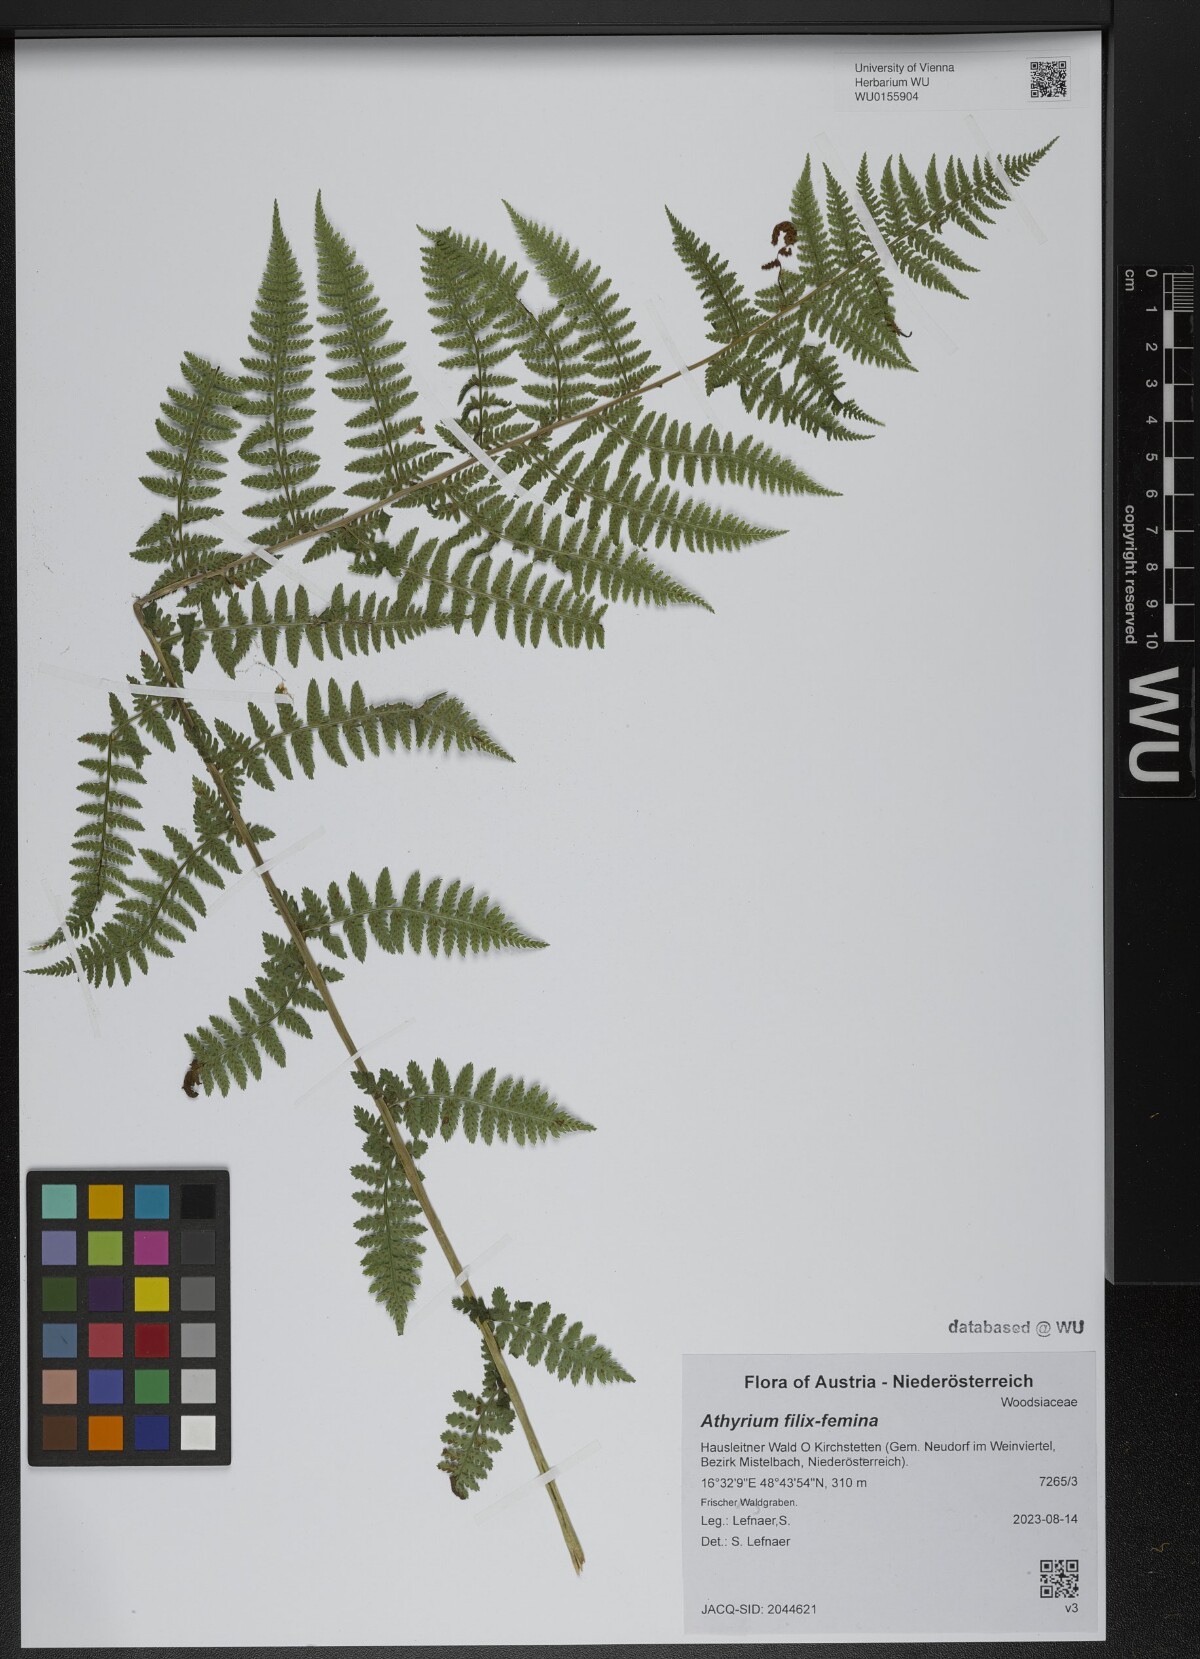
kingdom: Plantae
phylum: Tracheophyta
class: Polypodiopsida
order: Polypodiales
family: Athyriaceae
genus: Athyrium
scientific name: Athyrium filix-femina
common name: Lady fern
